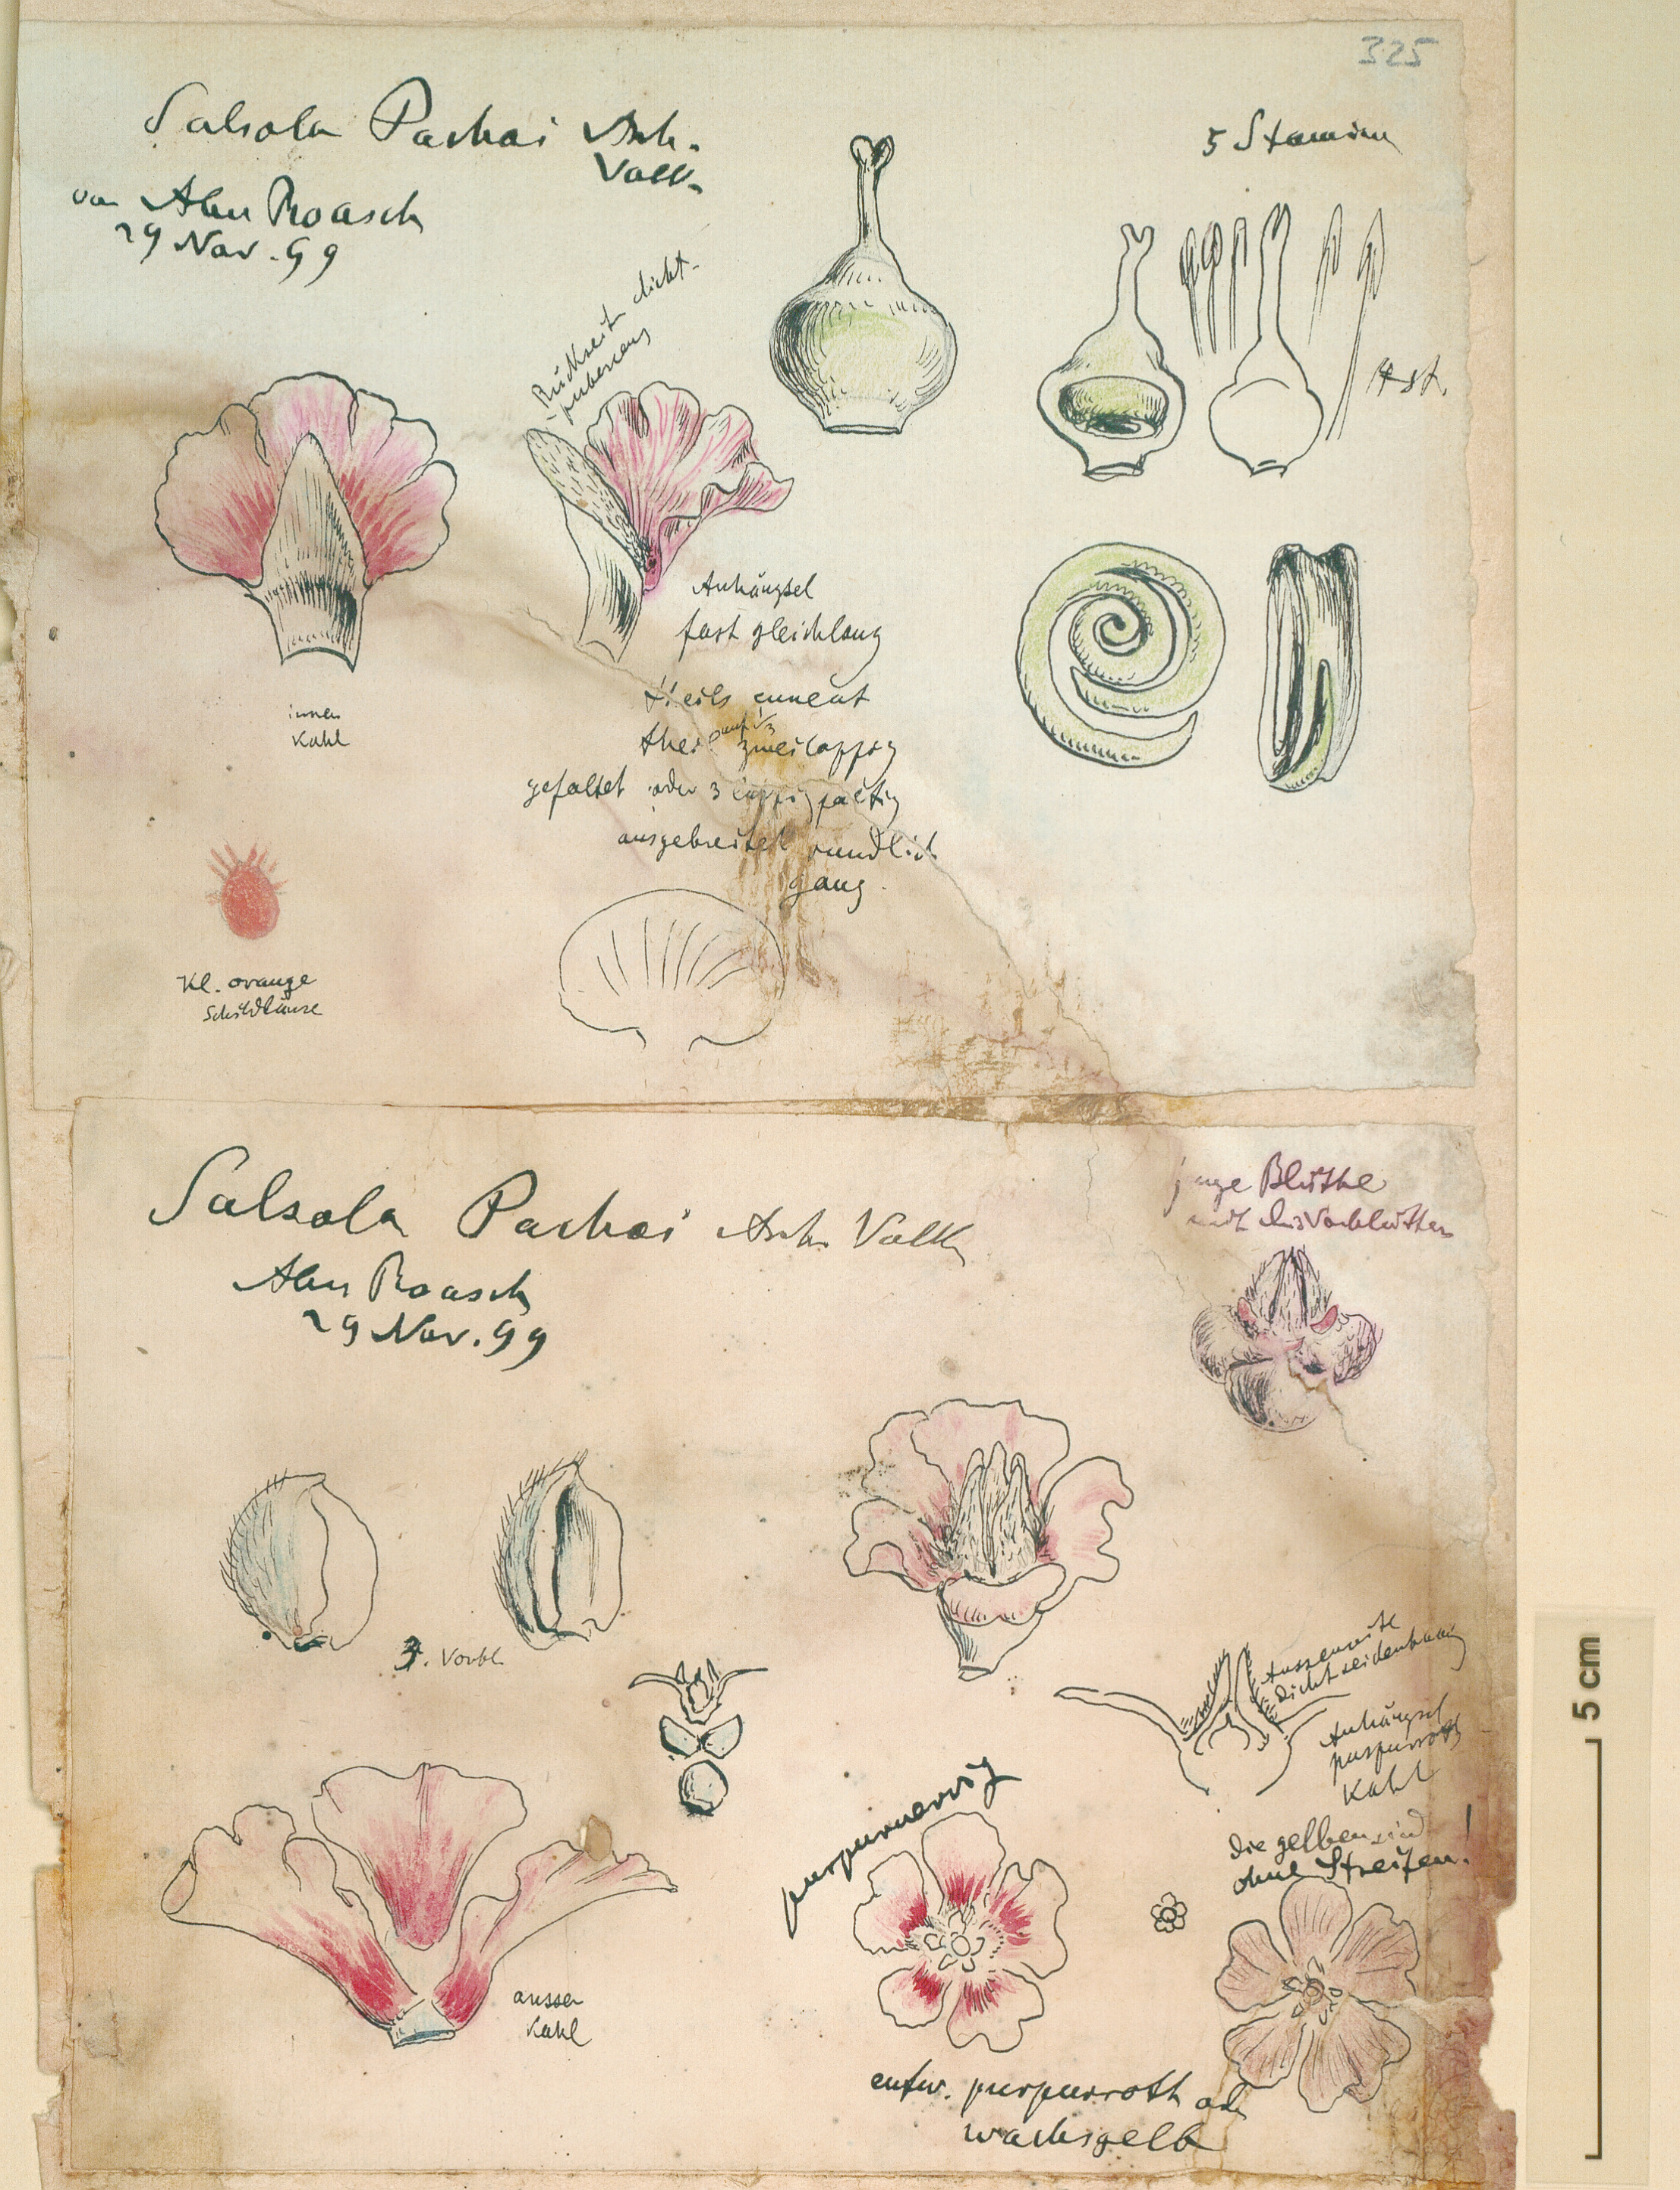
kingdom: Plantae
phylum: Tracheophyta
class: Magnoliopsida
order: Caryophyllales
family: Amaranthaceae
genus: Caroxylon
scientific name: Caroxylon tetrandrum
